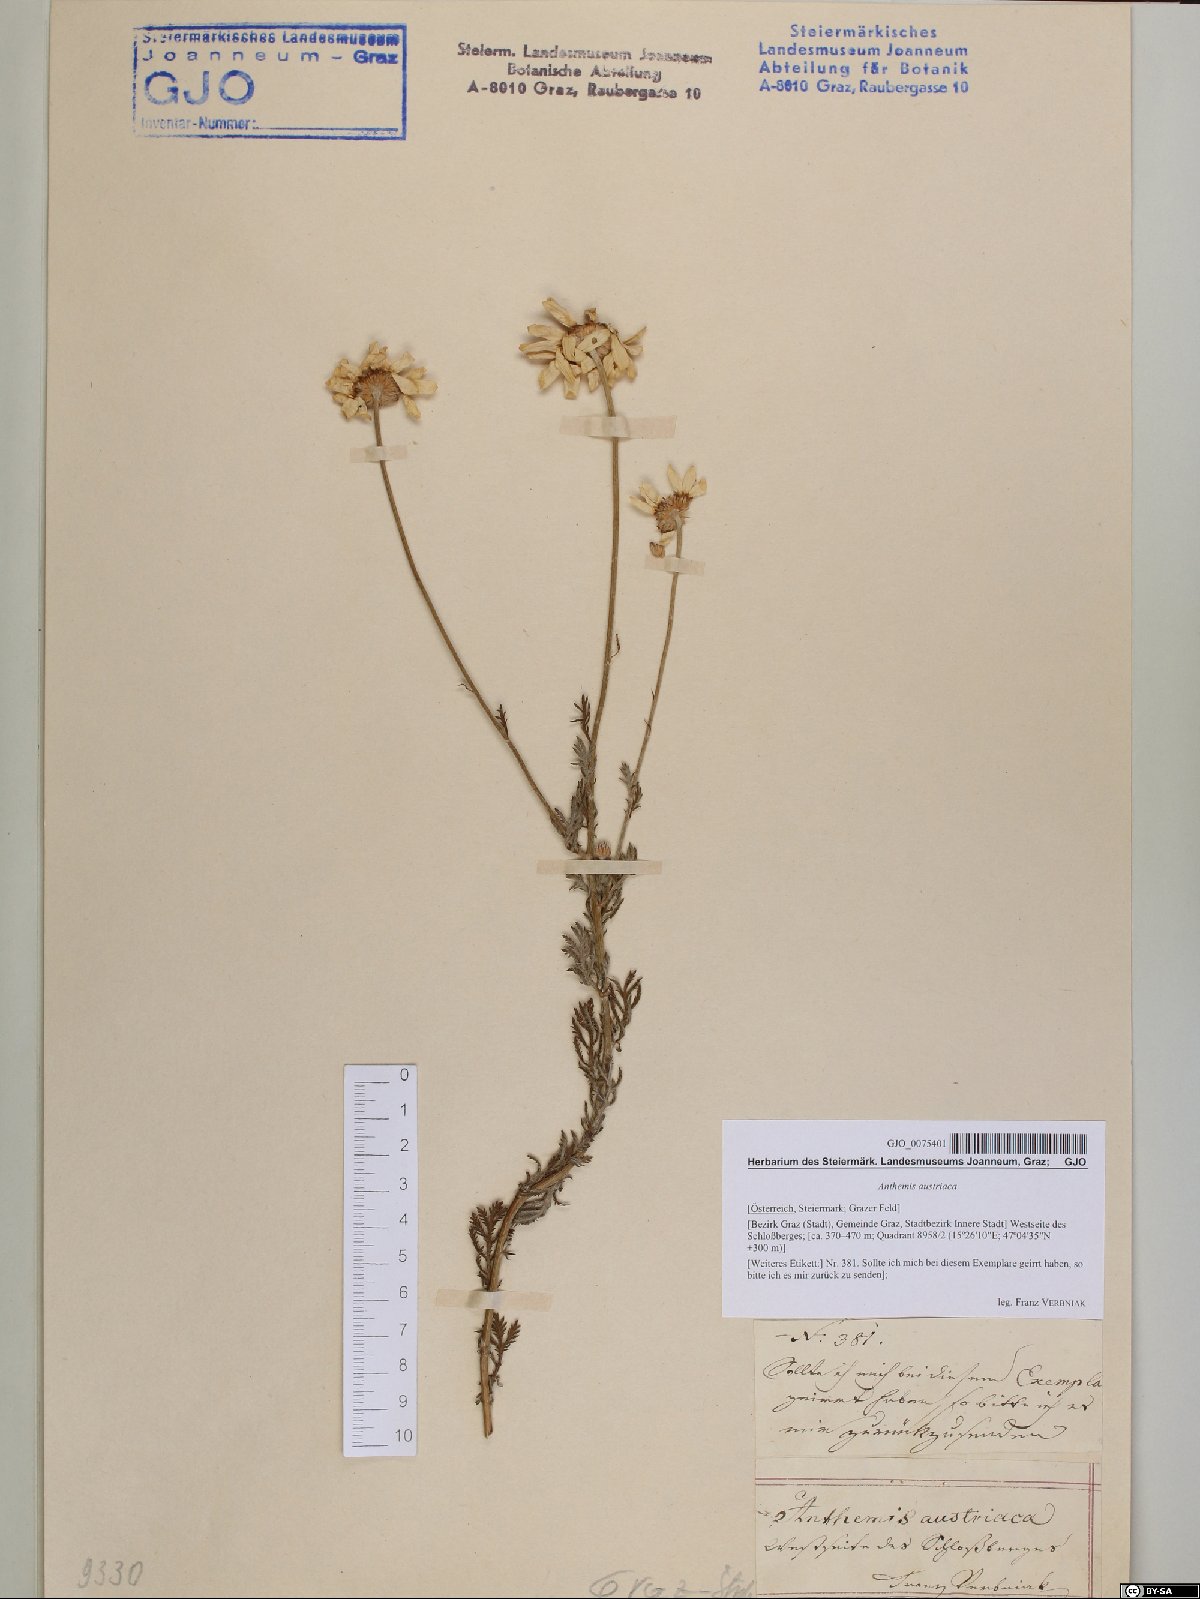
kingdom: Plantae
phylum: Tracheophyta
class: Magnoliopsida
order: Asterales
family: Asteraceae
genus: Cota
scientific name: Cota austriaca
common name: Austrian chamomile
